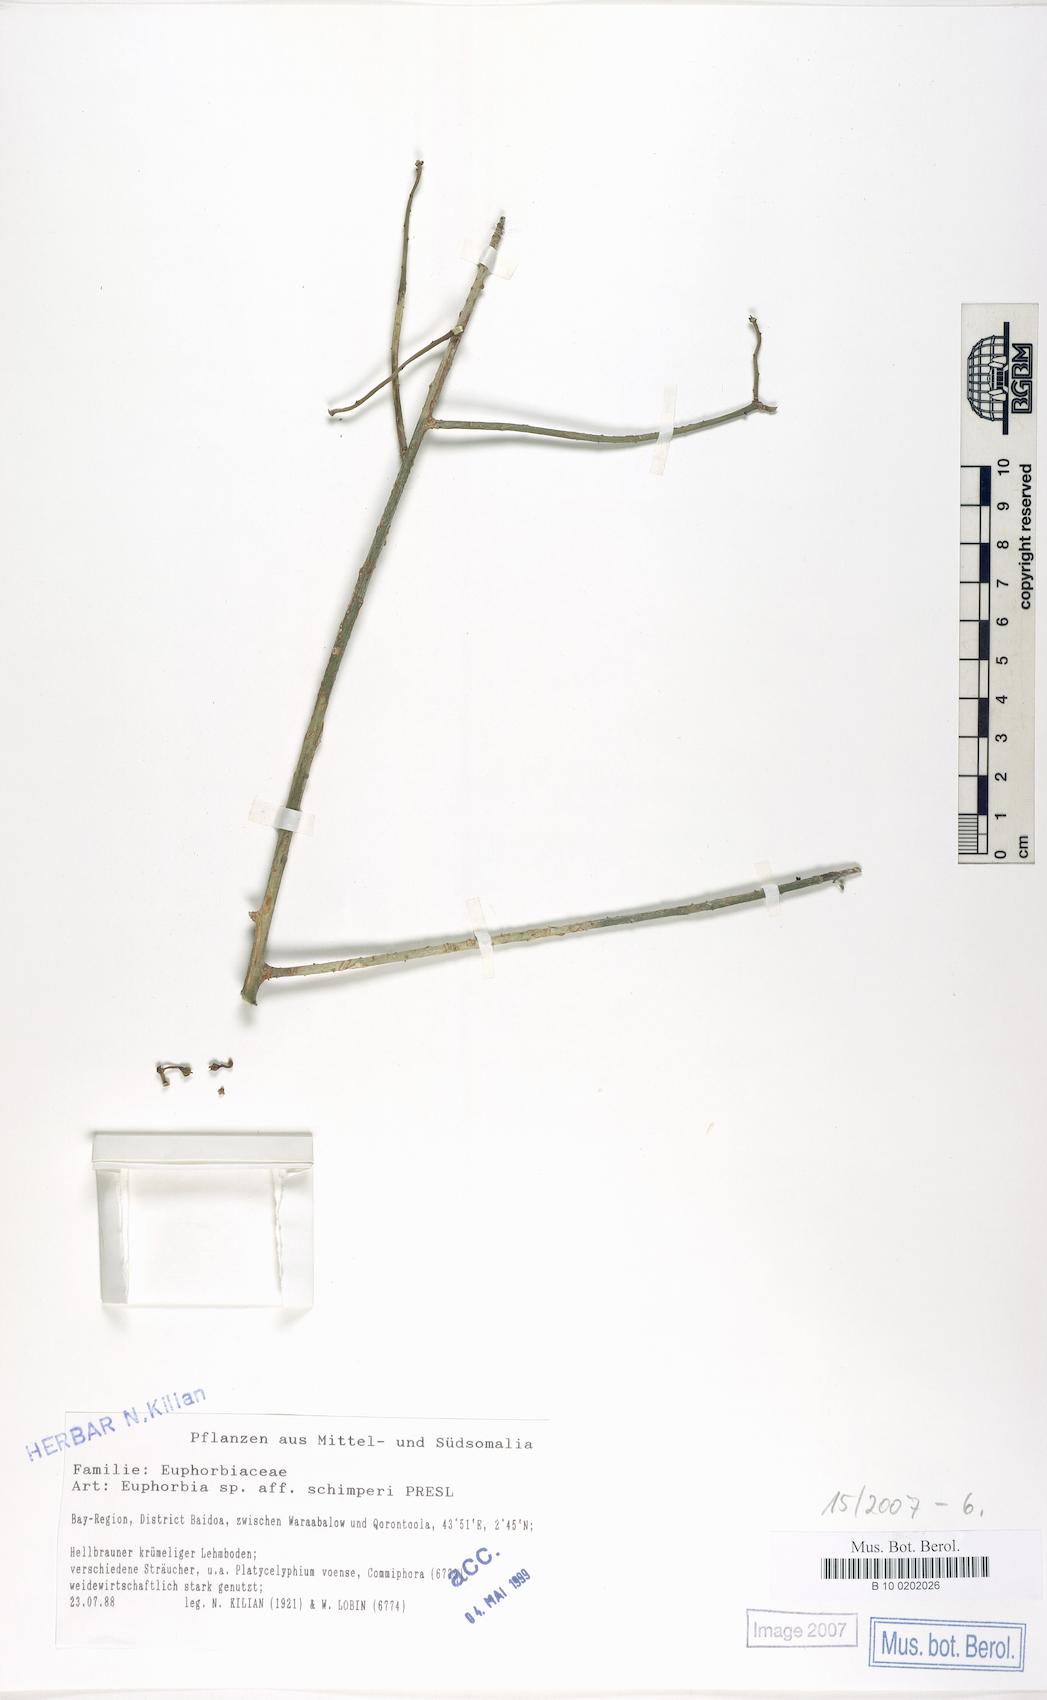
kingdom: Plantae
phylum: Tracheophyta
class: Magnoliopsida
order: Malpighiales
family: Euphorbiaceae
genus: Euphorbia
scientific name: Euphorbia schimperi
